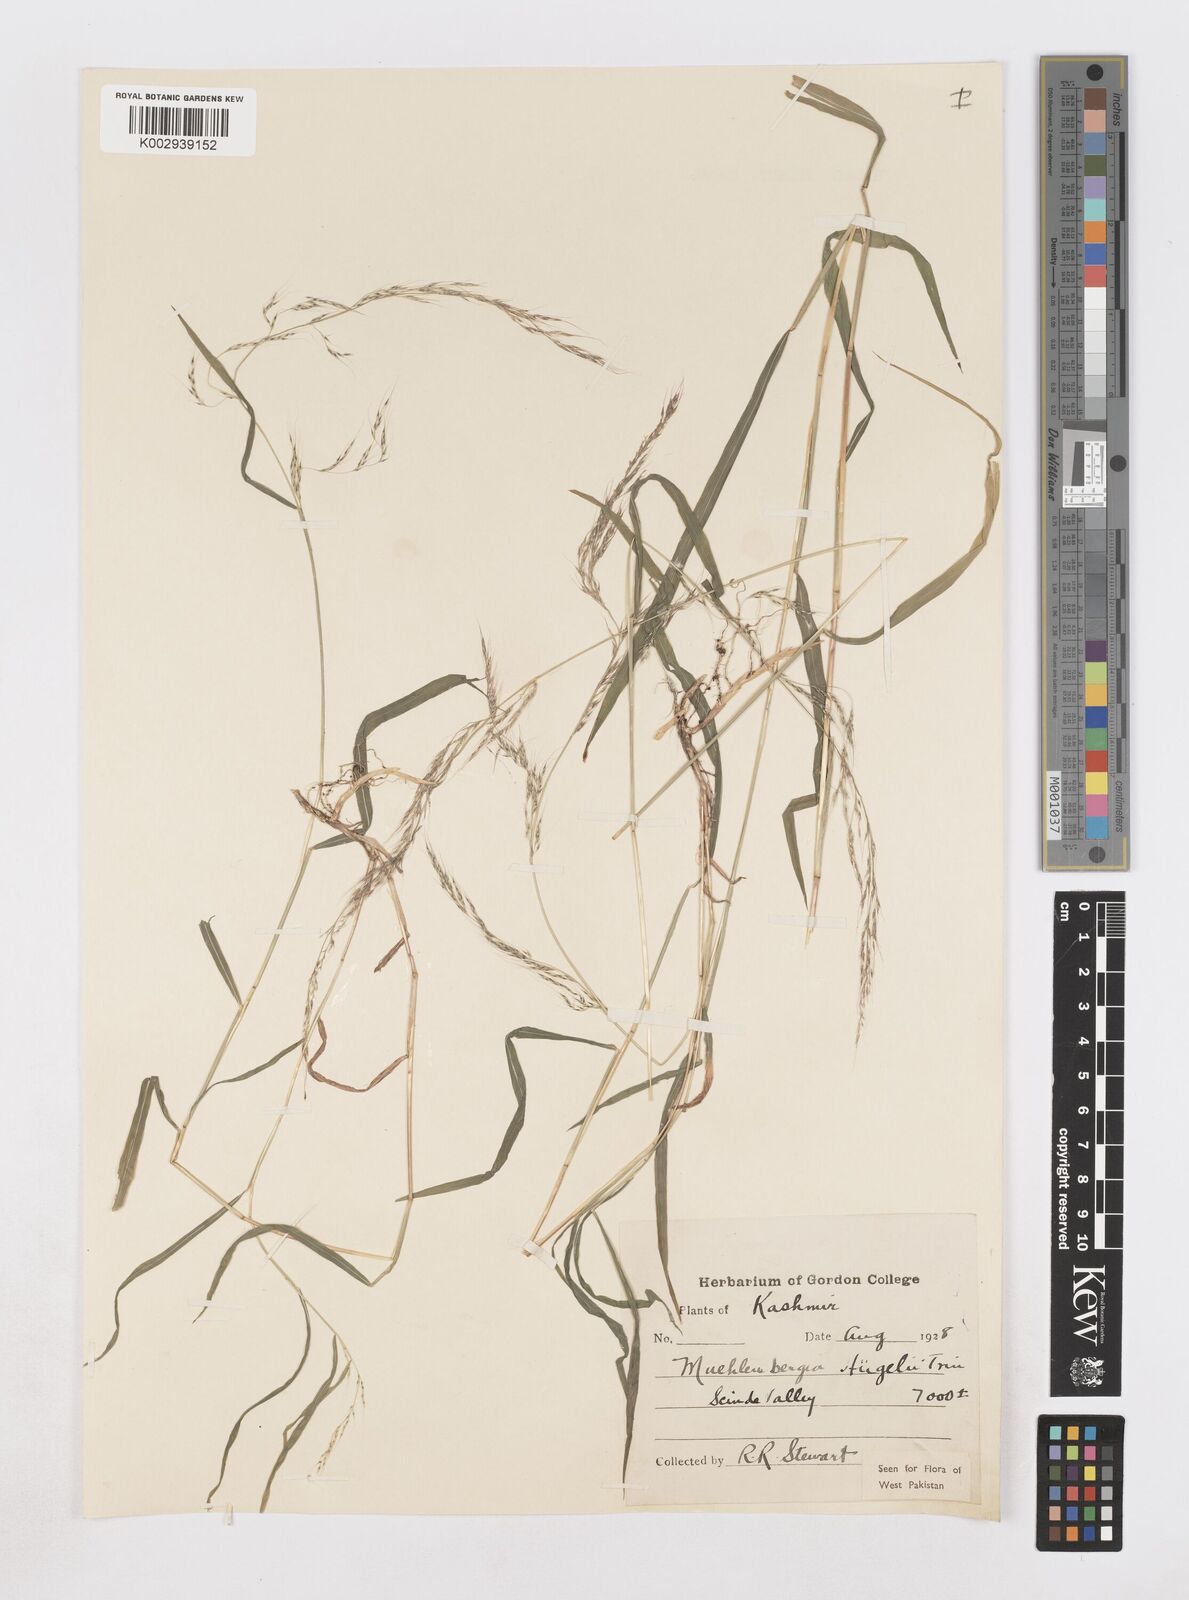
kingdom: Plantae
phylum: Tracheophyta
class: Liliopsida
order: Poales
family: Poaceae
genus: Muhlenbergia
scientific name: Muhlenbergia huegelii
